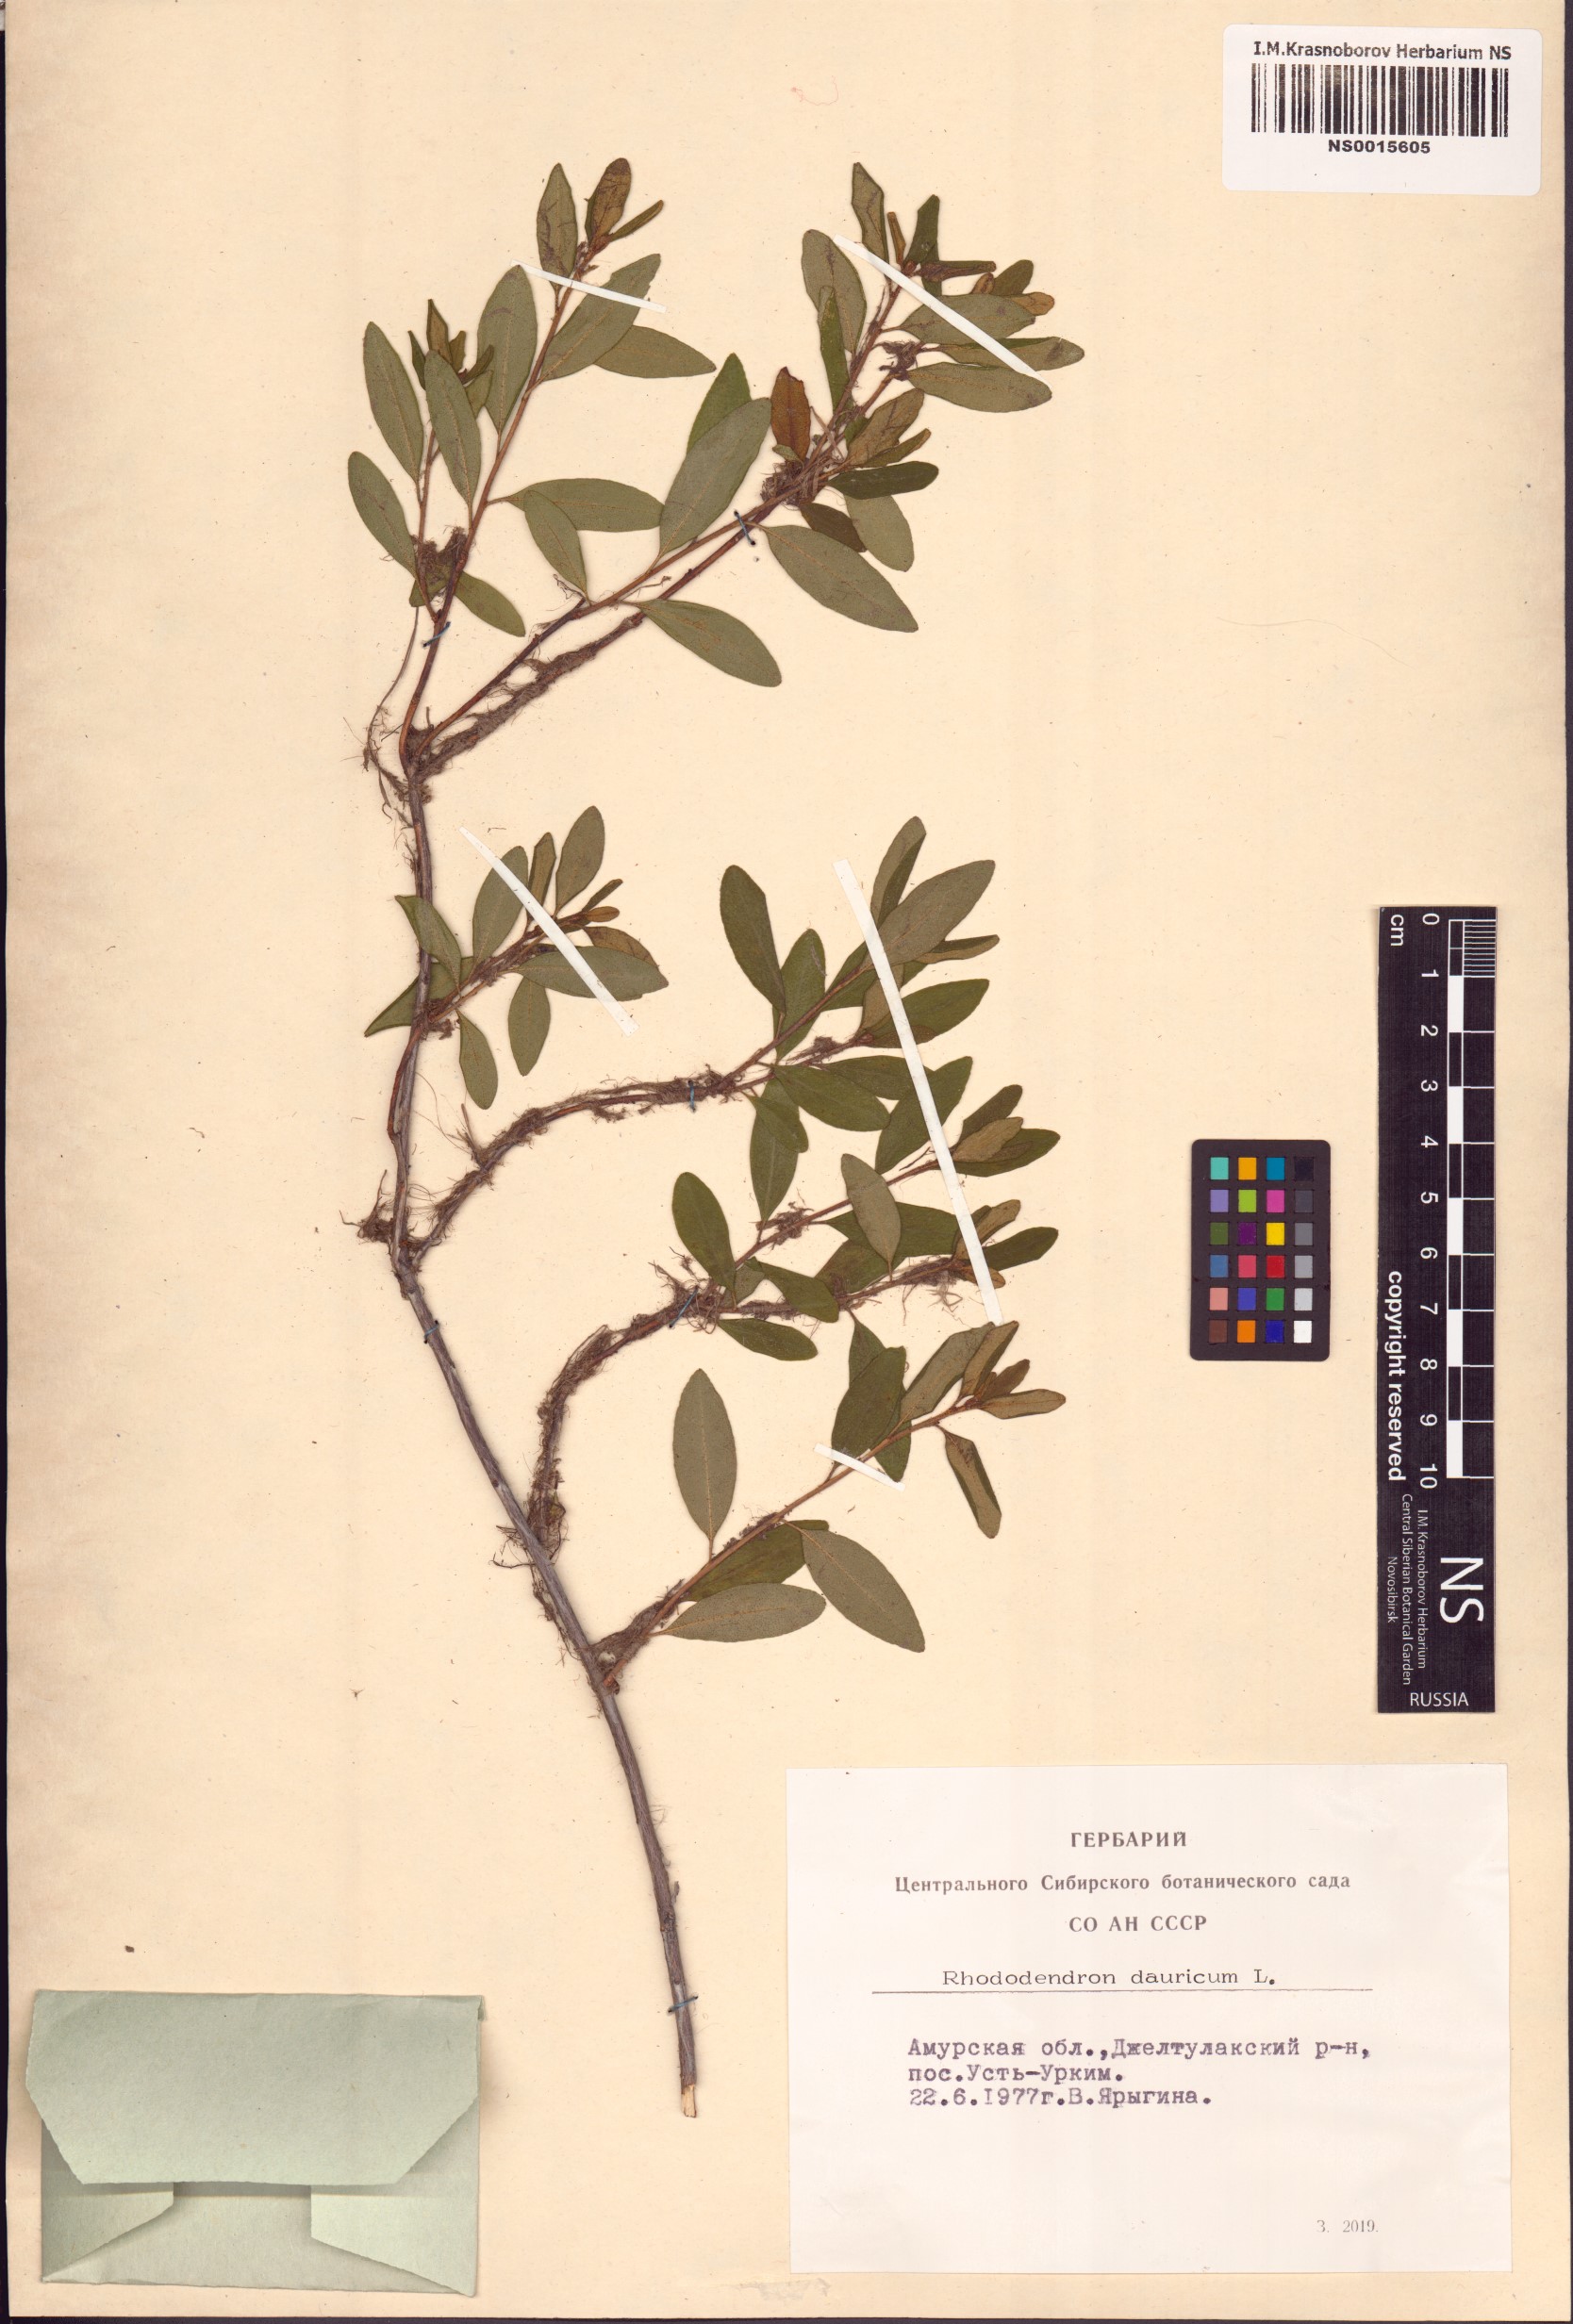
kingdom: Plantae
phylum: Tracheophyta
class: Magnoliopsida
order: Ericales
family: Ericaceae
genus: Rhododendron
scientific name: Rhododendron dauricum
